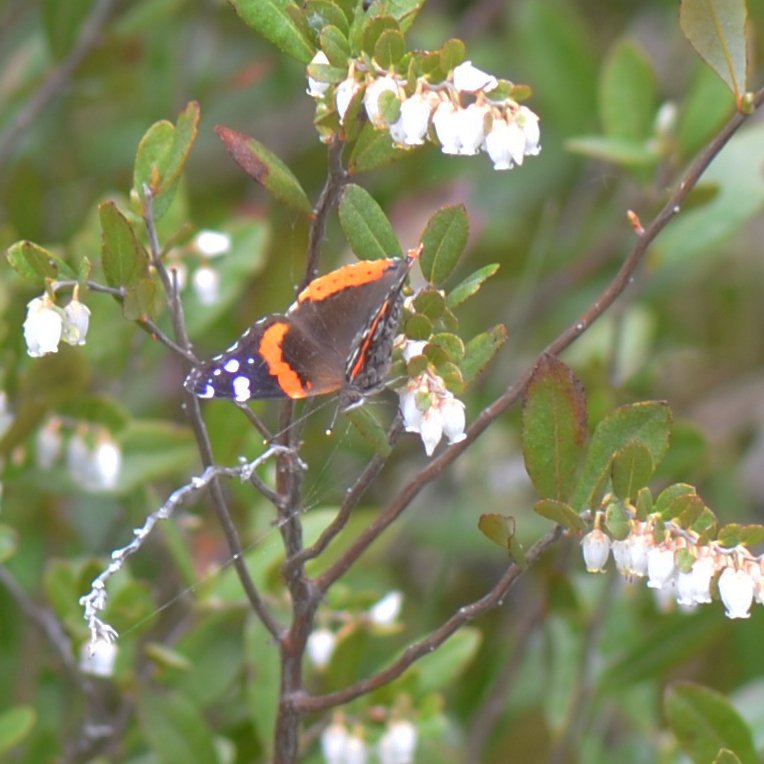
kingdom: Animalia
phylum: Arthropoda
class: Insecta
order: Lepidoptera
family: Nymphalidae
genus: Vanessa
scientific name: Vanessa atalanta
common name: Red Admiral
